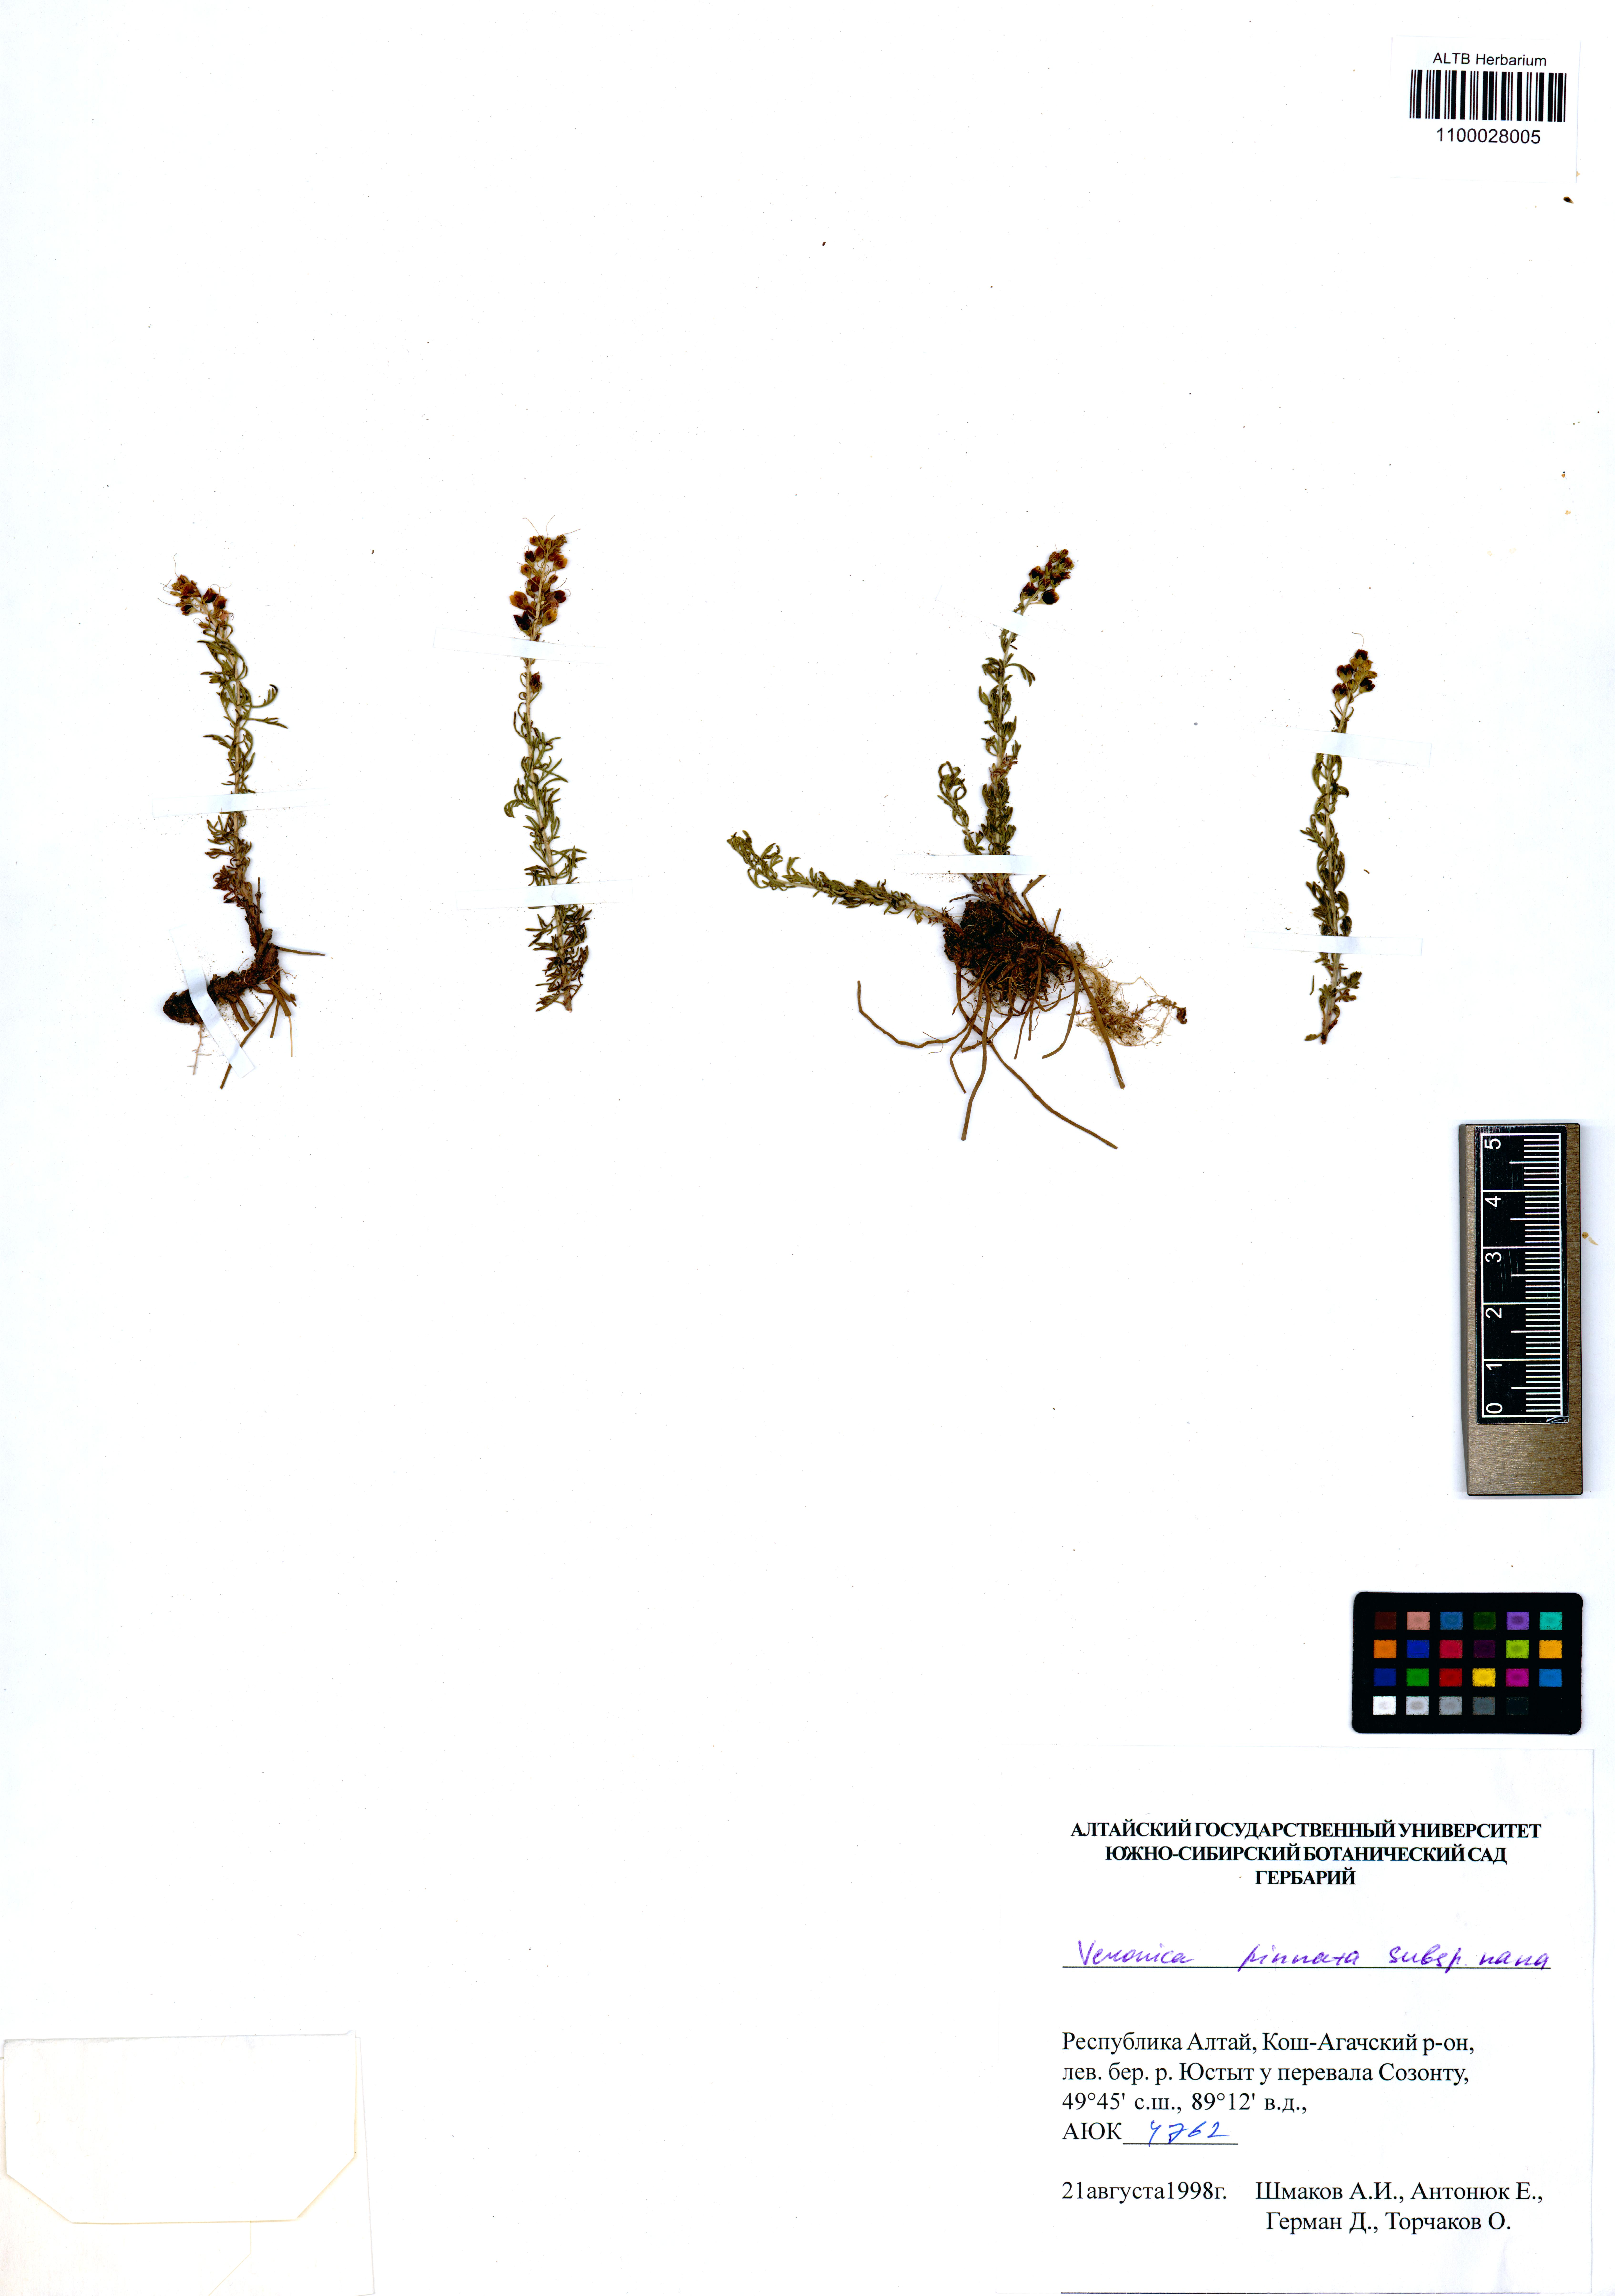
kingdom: Plantae
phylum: Tracheophyta
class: Magnoliopsida
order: Lamiales
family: Plantaginaceae
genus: Veronica
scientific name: Veronica pinnata
